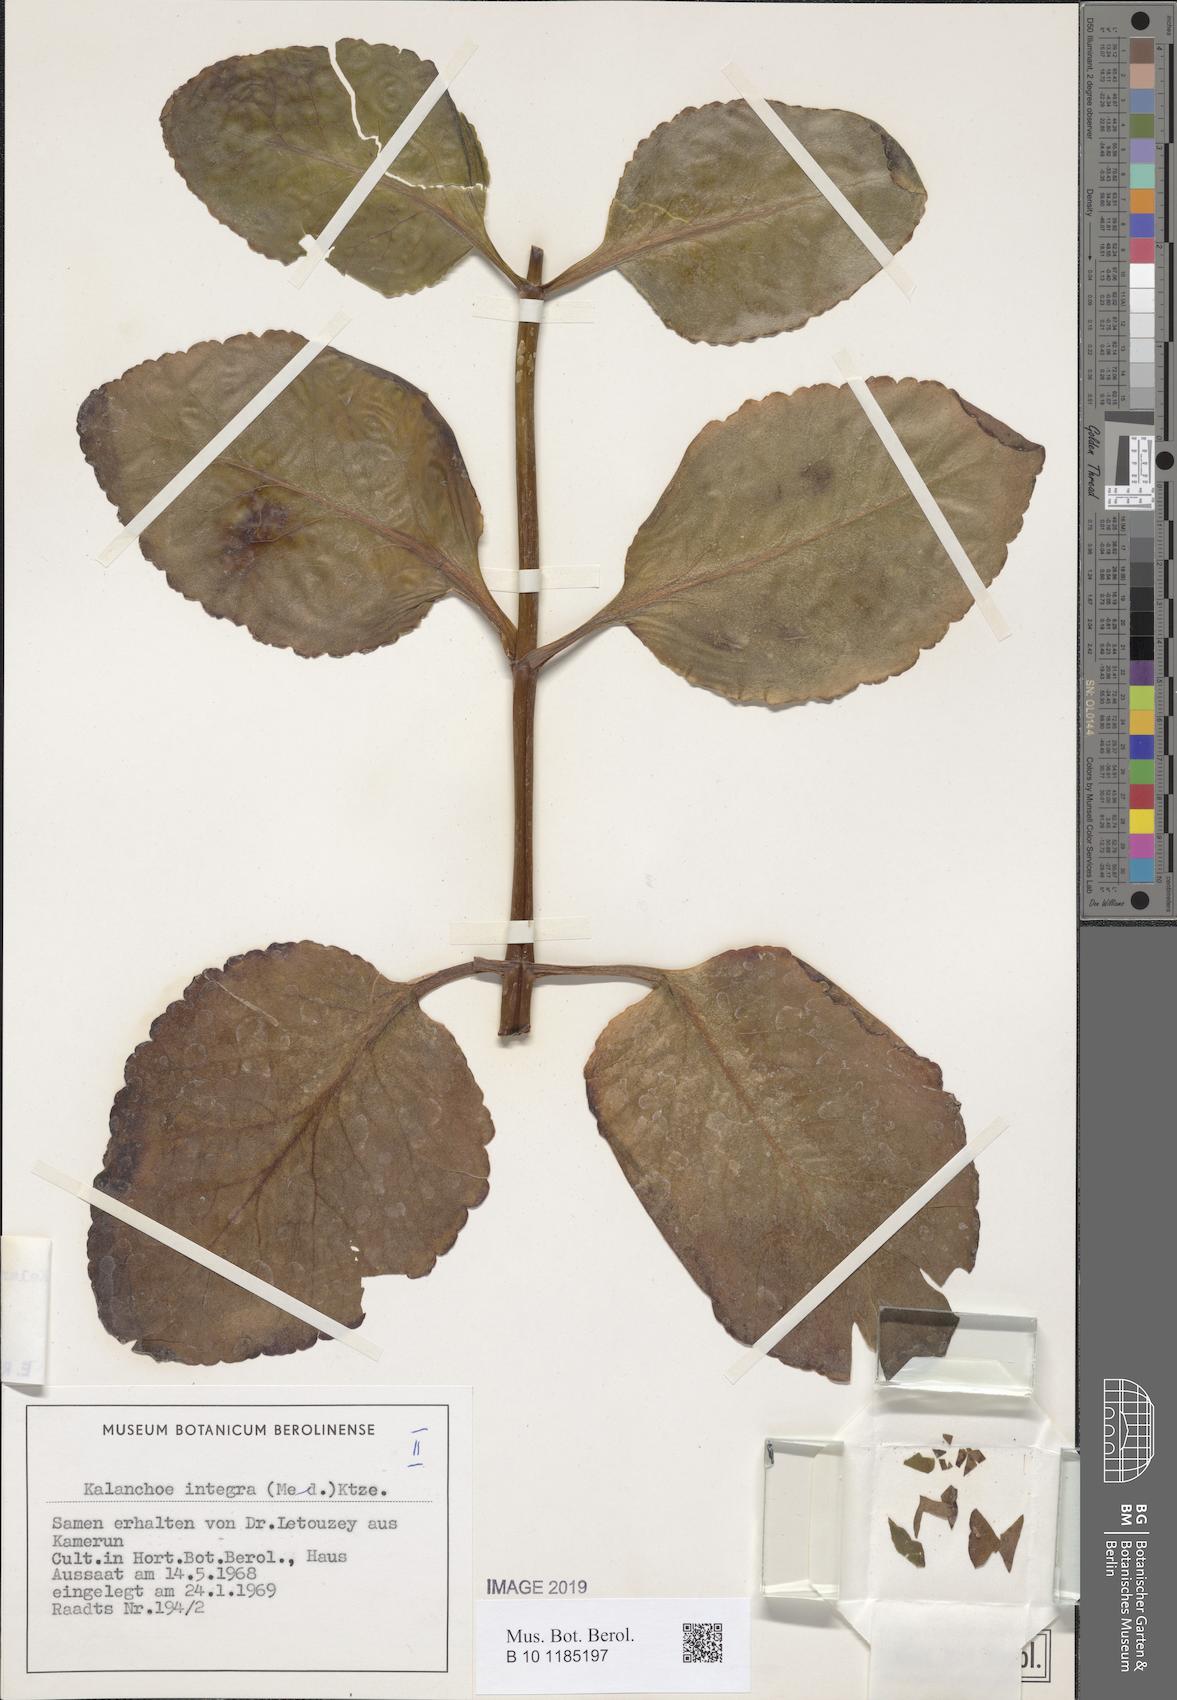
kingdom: Plantae
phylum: Tracheophyta
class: Magnoliopsida
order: Saxifragales
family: Crassulaceae
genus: Kalanchoe
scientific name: Kalanchoe crenata
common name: Neverdie
